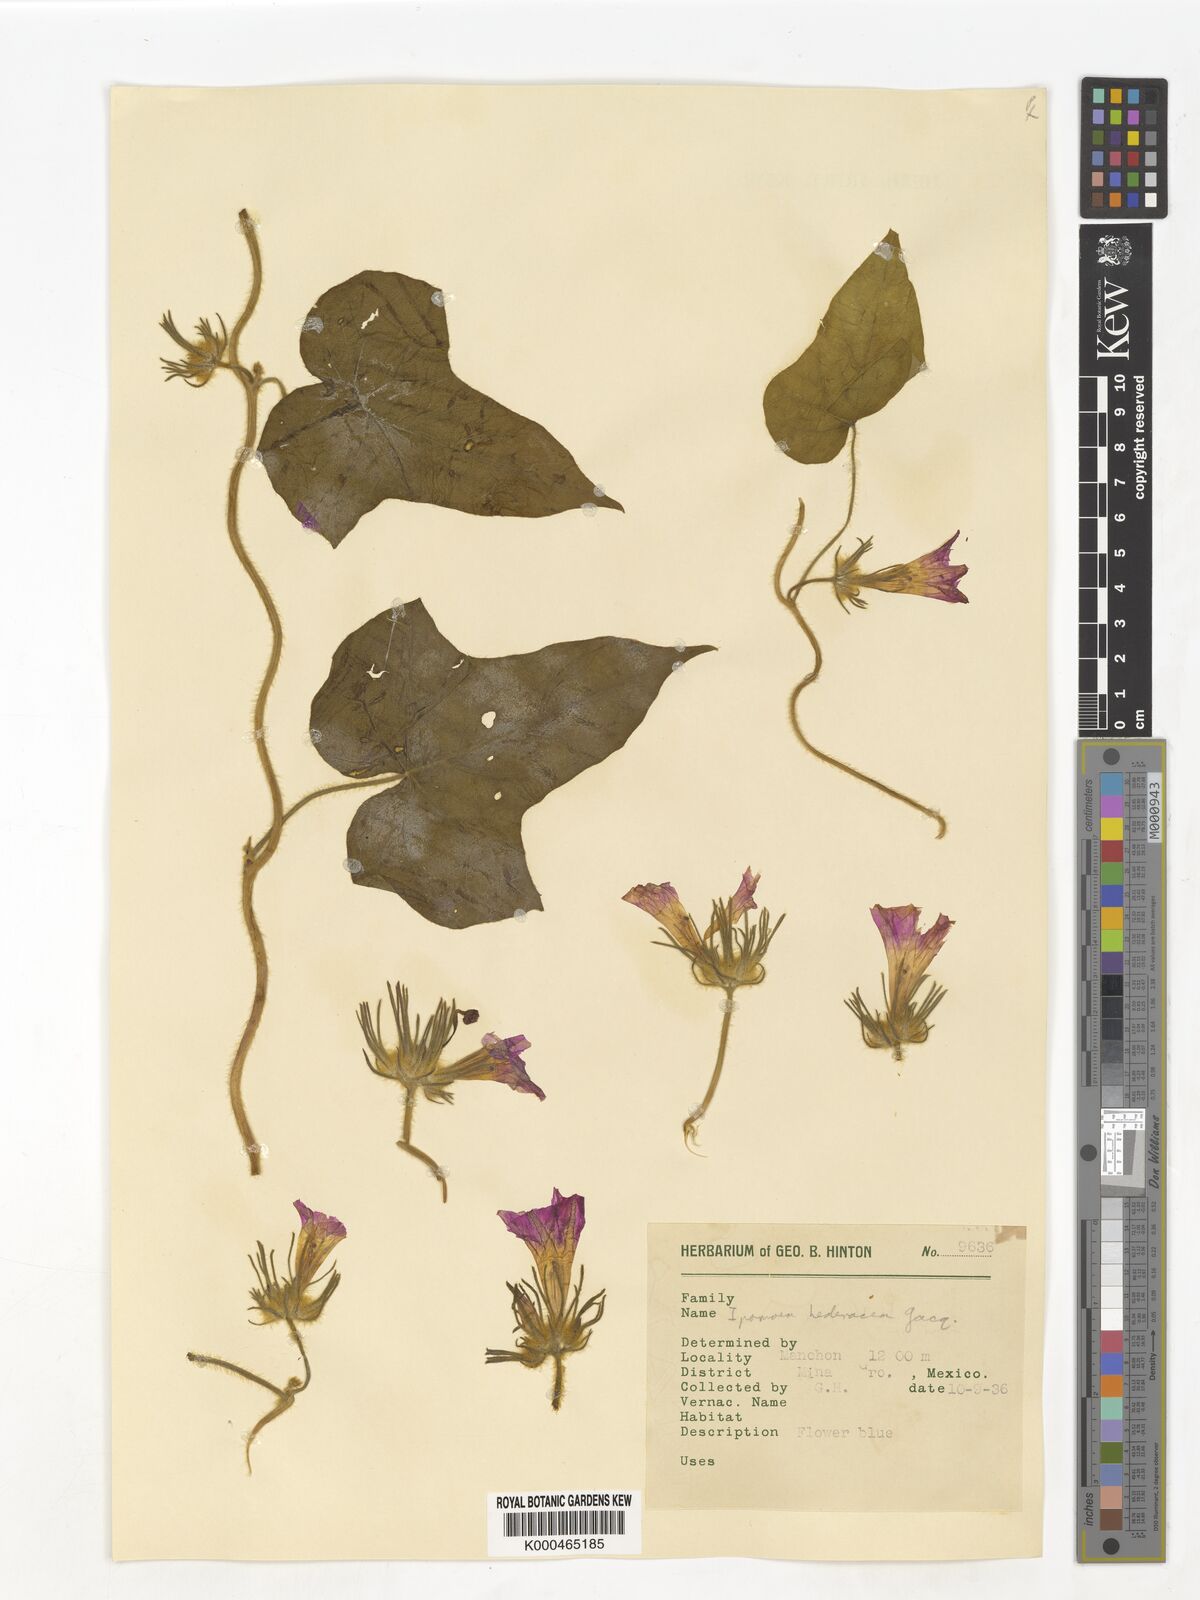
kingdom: Plantae
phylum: Tracheophyta
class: Magnoliopsida
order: Solanales
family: Convolvulaceae
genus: Ipomoea
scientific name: Ipomoea hederacea
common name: Ivy-leaved morning-glory
